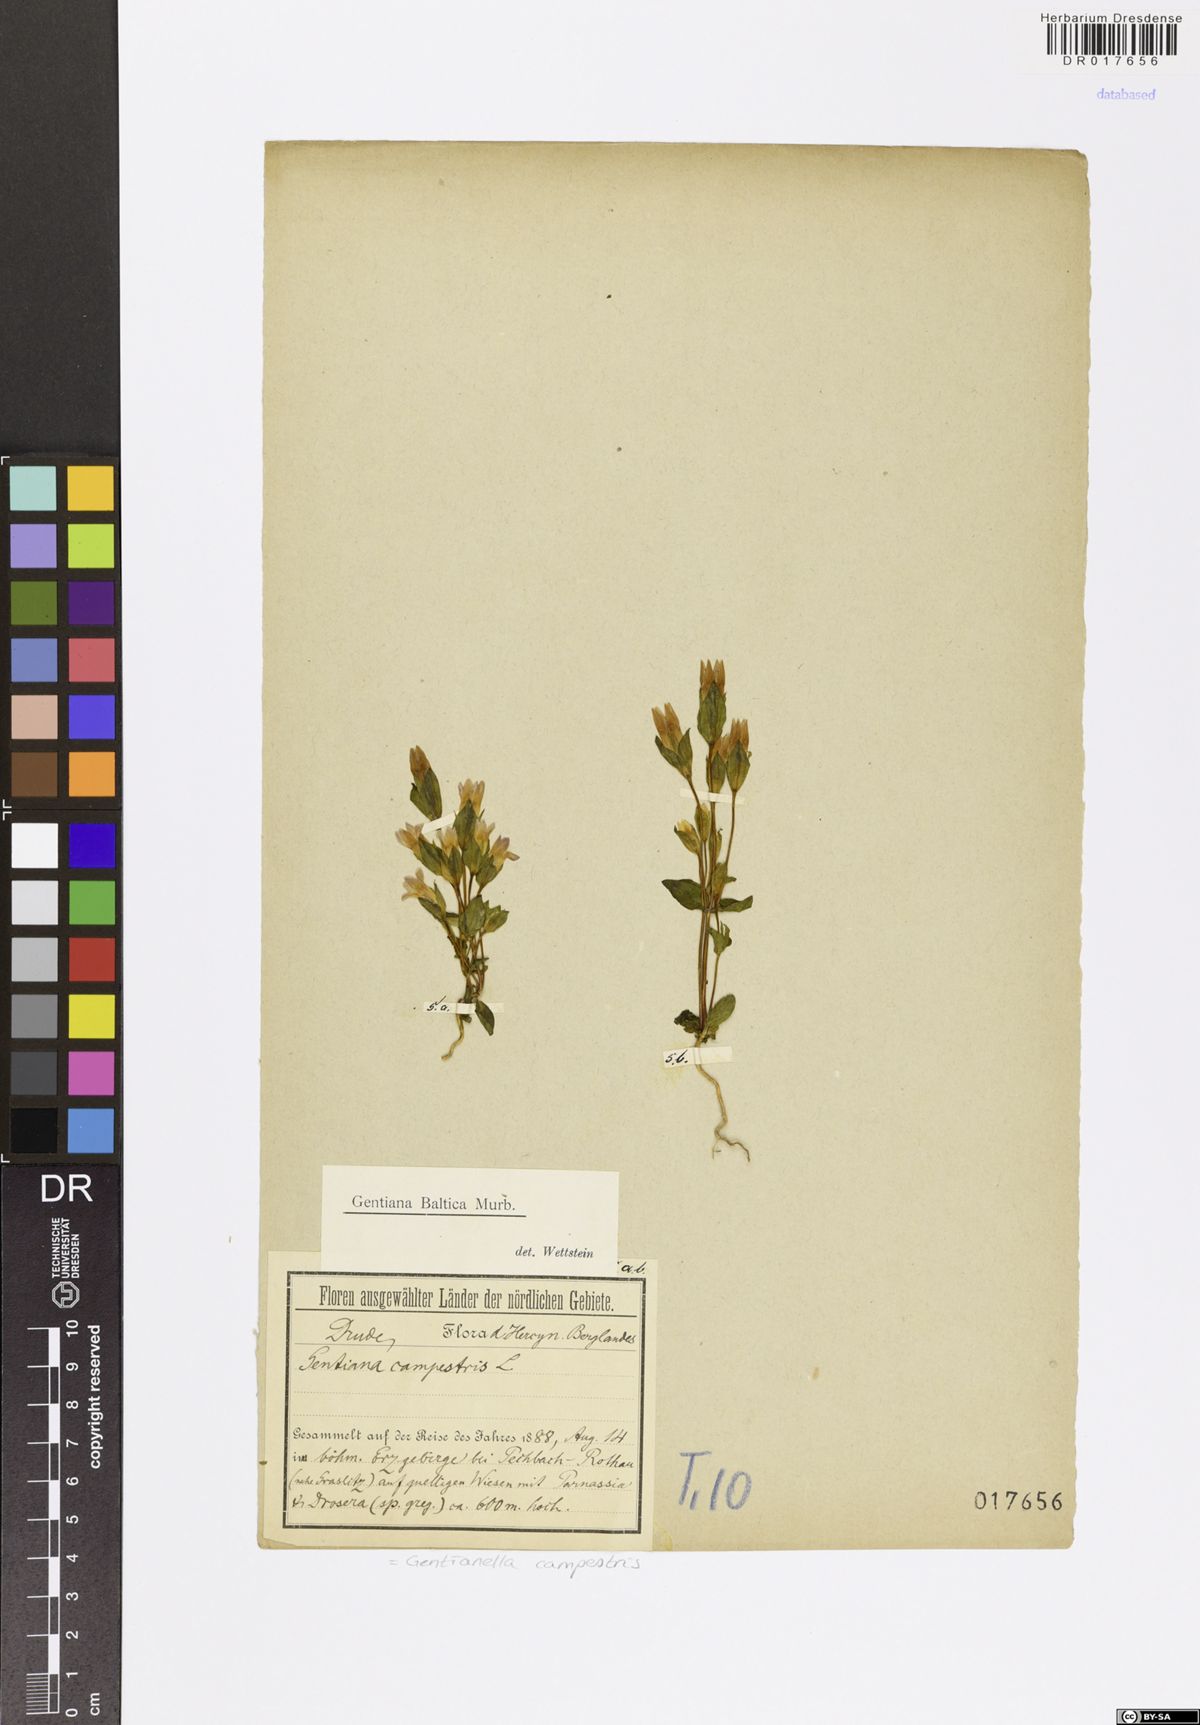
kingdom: Plantae
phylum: Tracheophyta
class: Magnoliopsida
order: Gentianales
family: Gentianaceae
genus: Gentianella
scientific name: Gentianella campestris
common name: Field gentian
